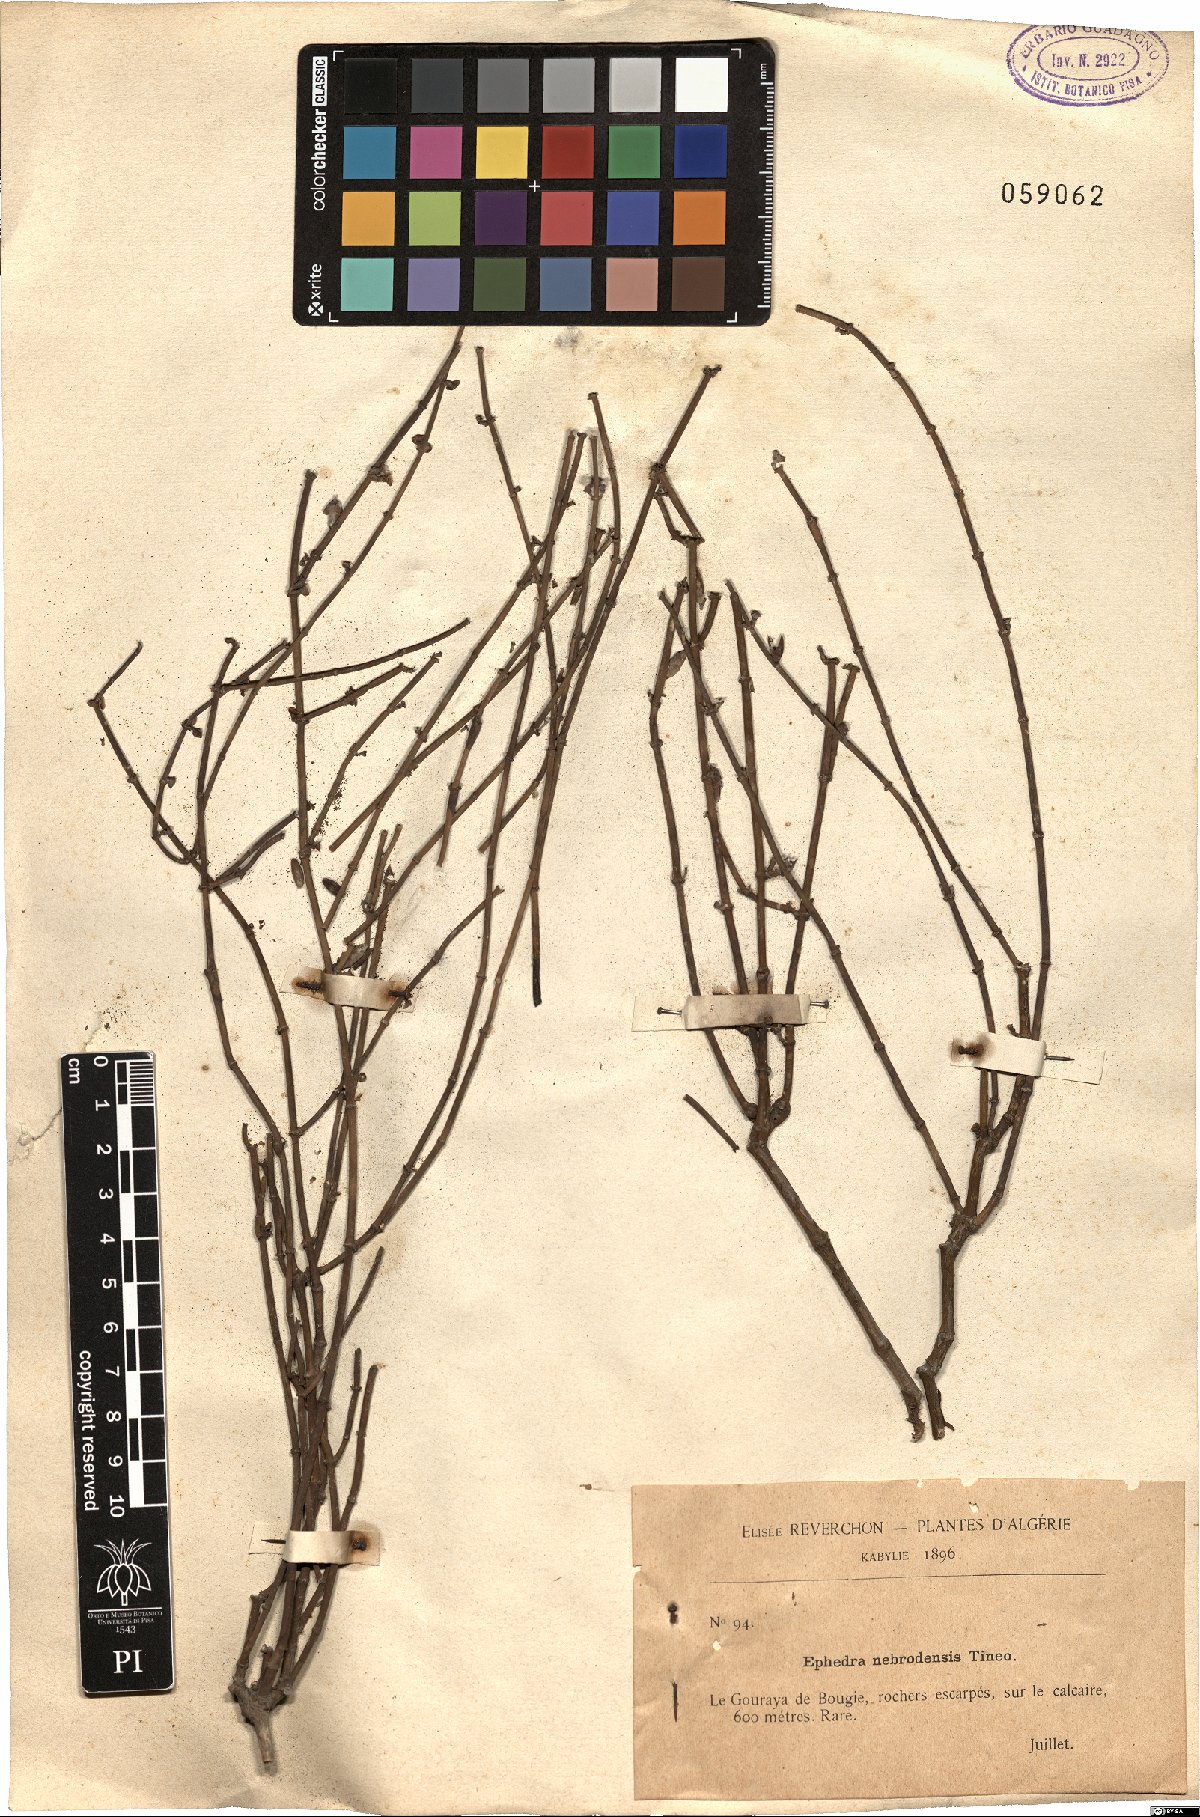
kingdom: Plantae
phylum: Tracheophyta
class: Gnetopsida
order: Ephedrales
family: Ephedraceae
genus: Ephedra
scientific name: Ephedra foeminea
